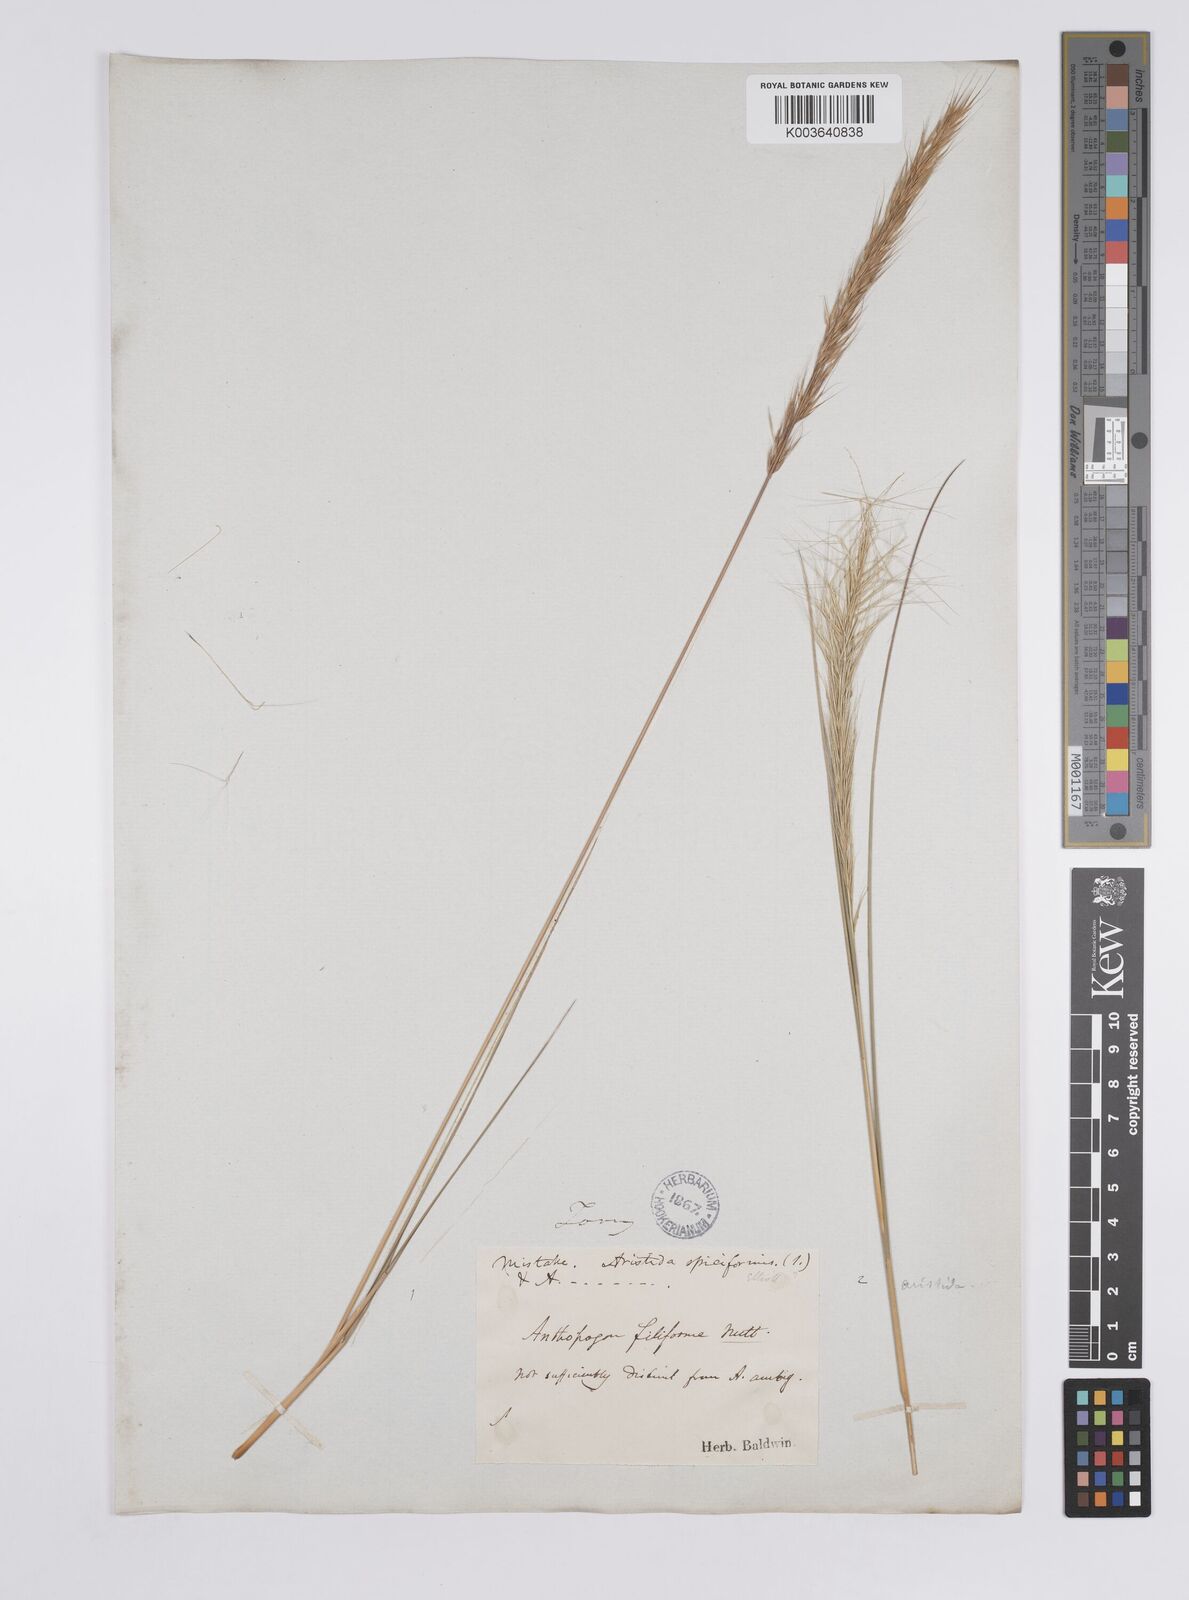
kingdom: Plantae
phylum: Tracheophyta
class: Liliopsida
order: Poales
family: Poaceae
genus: Aristida
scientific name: Aristida spiciformis
